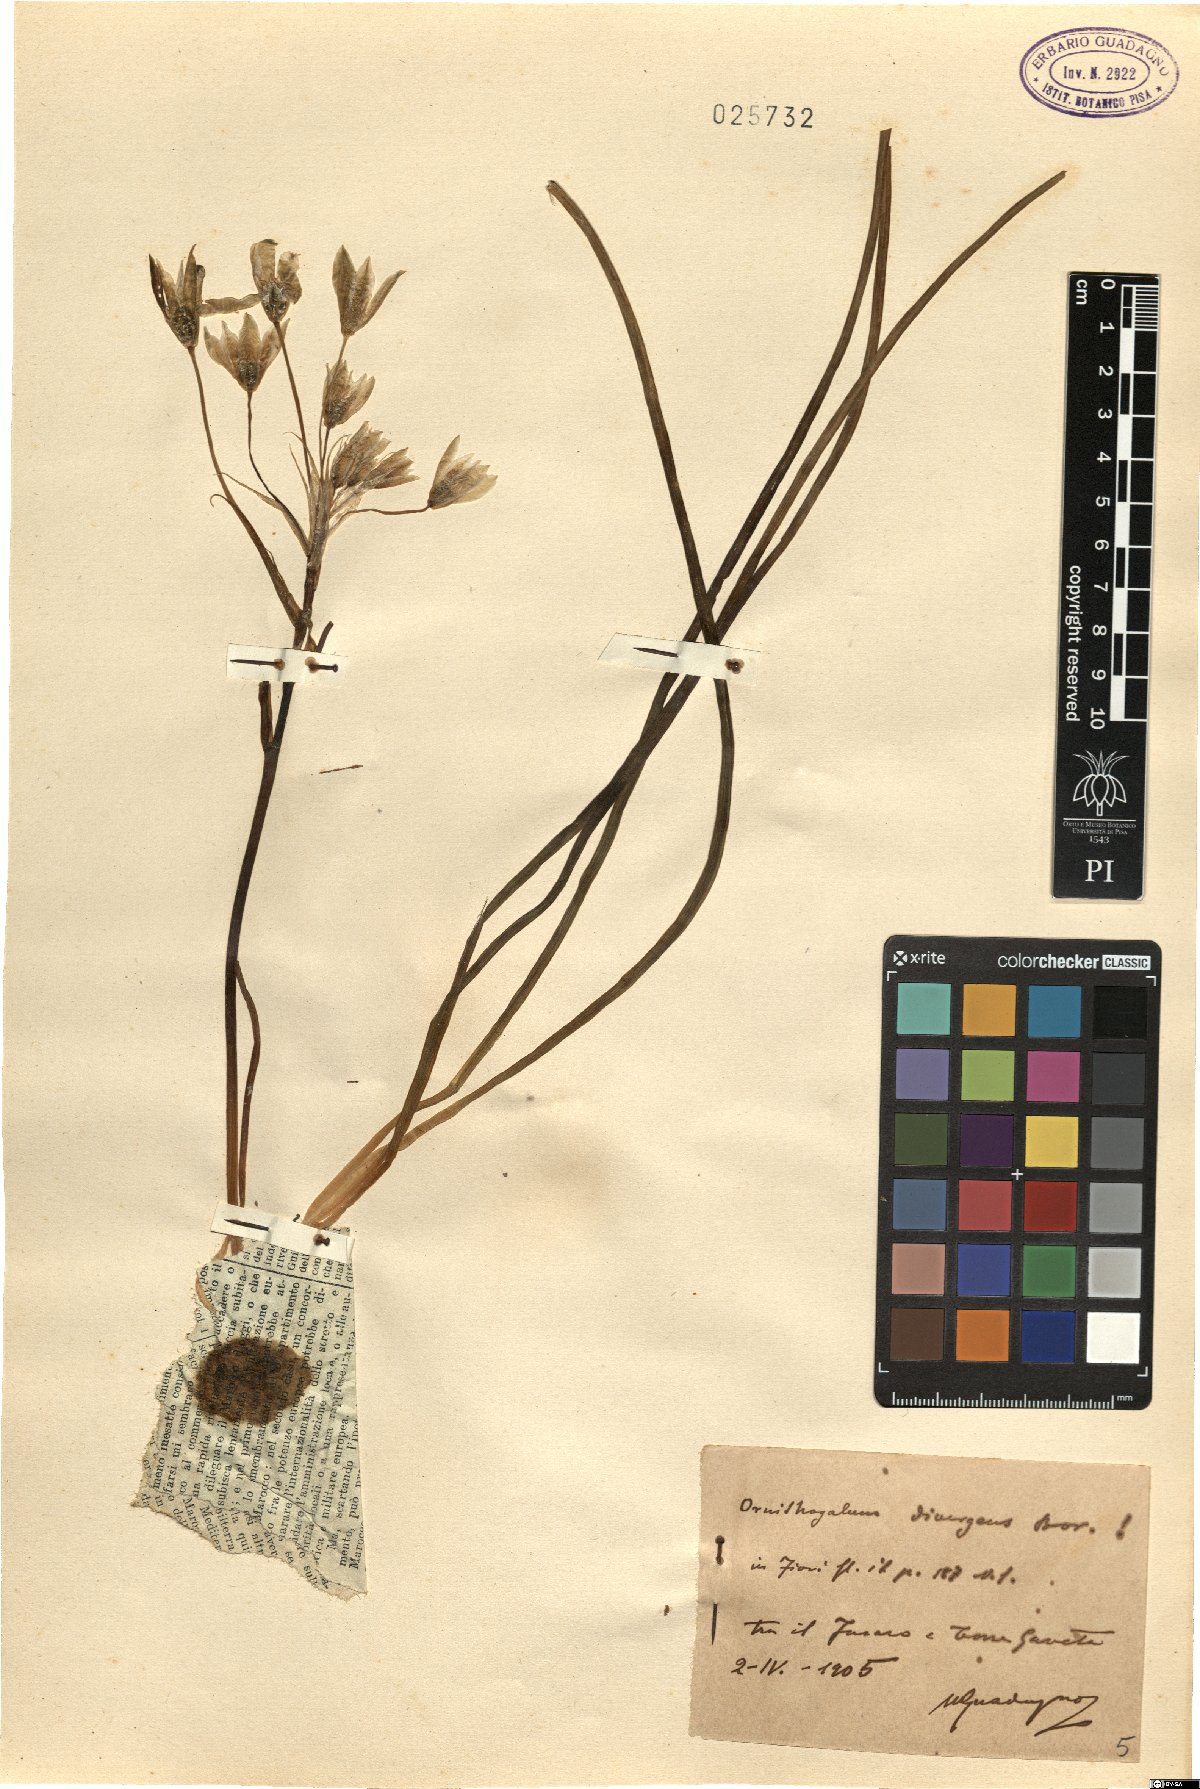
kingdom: Plantae
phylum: Tracheophyta
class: Liliopsida
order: Asparagales
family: Asparagaceae
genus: Ornithogalum
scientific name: Ornithogalum divergens
